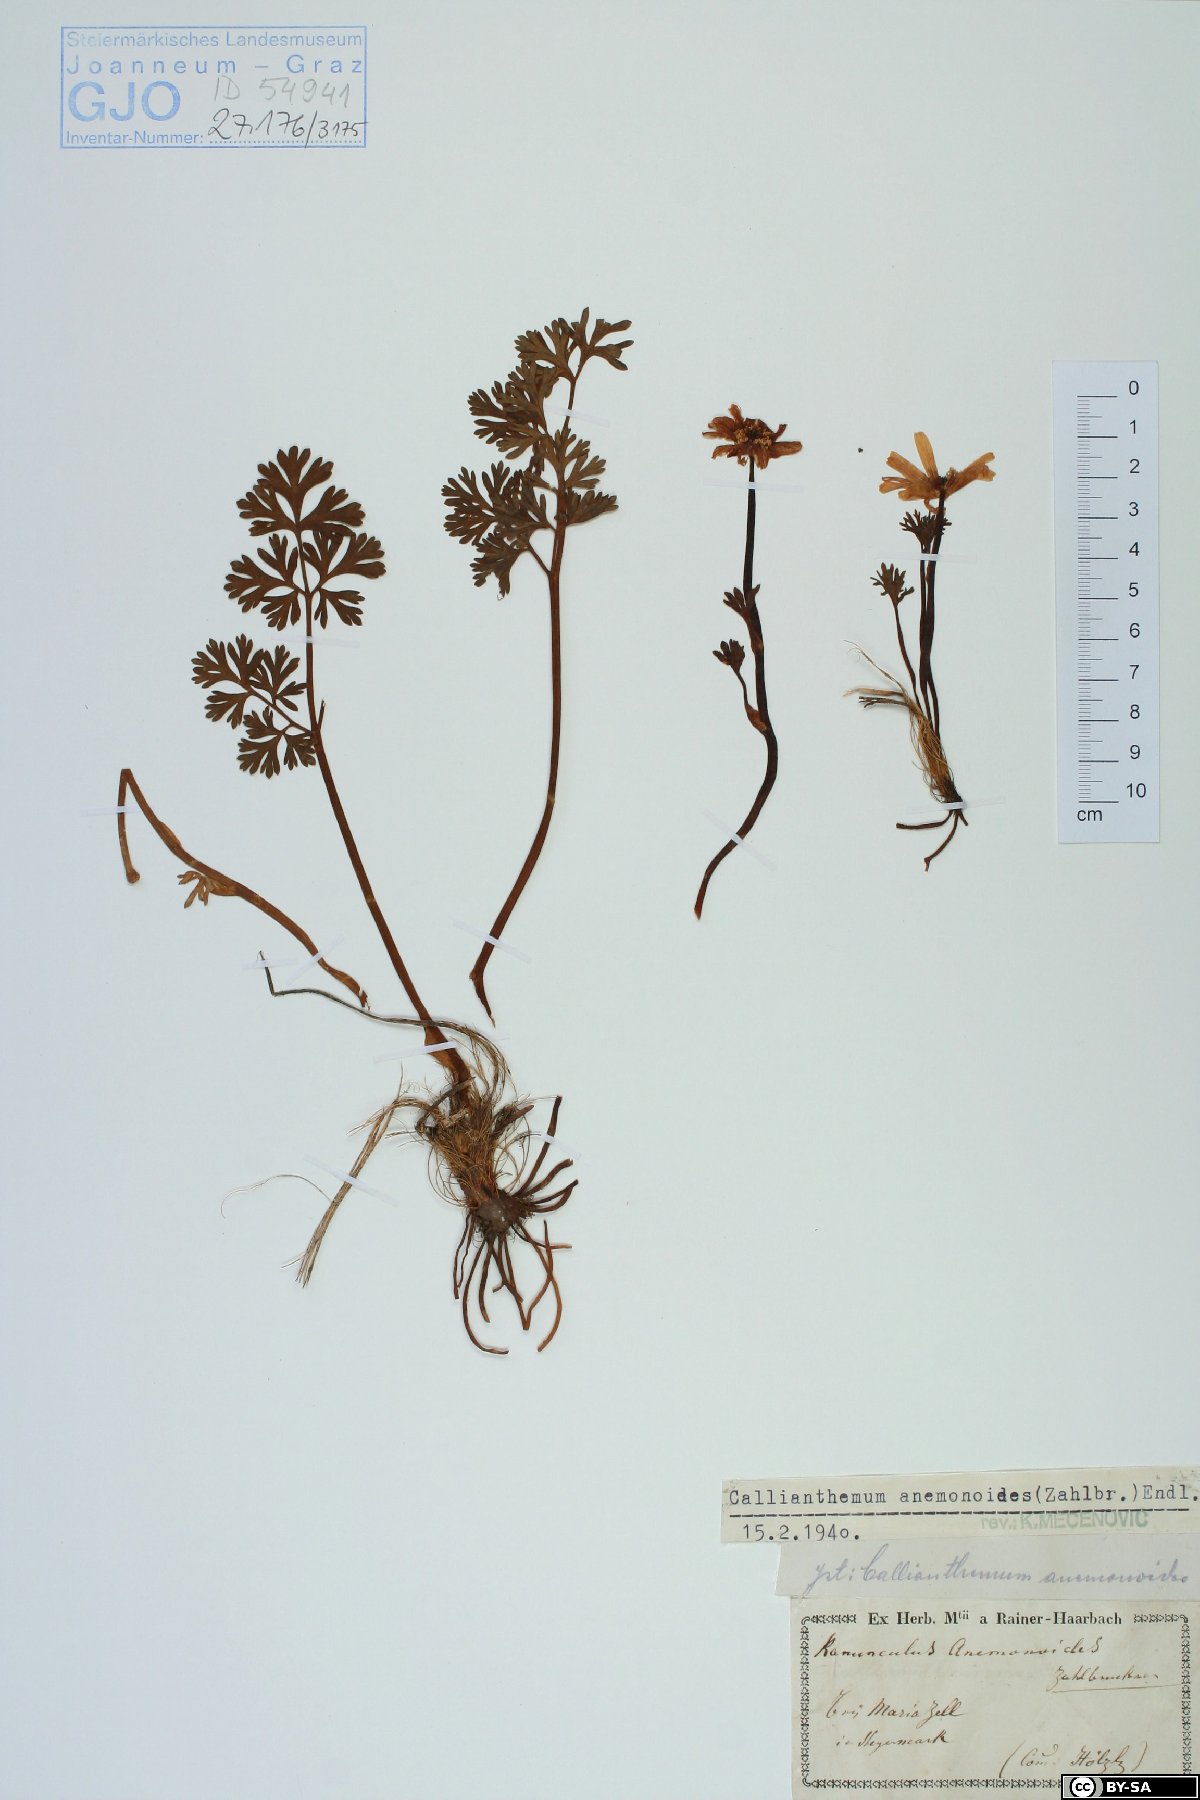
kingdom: Plantae
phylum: Tracheophyta
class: Magnoliopsida
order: Ranunculales
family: Ranunculaceae
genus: Callianthemum
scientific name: Callianthemum anemonoides
